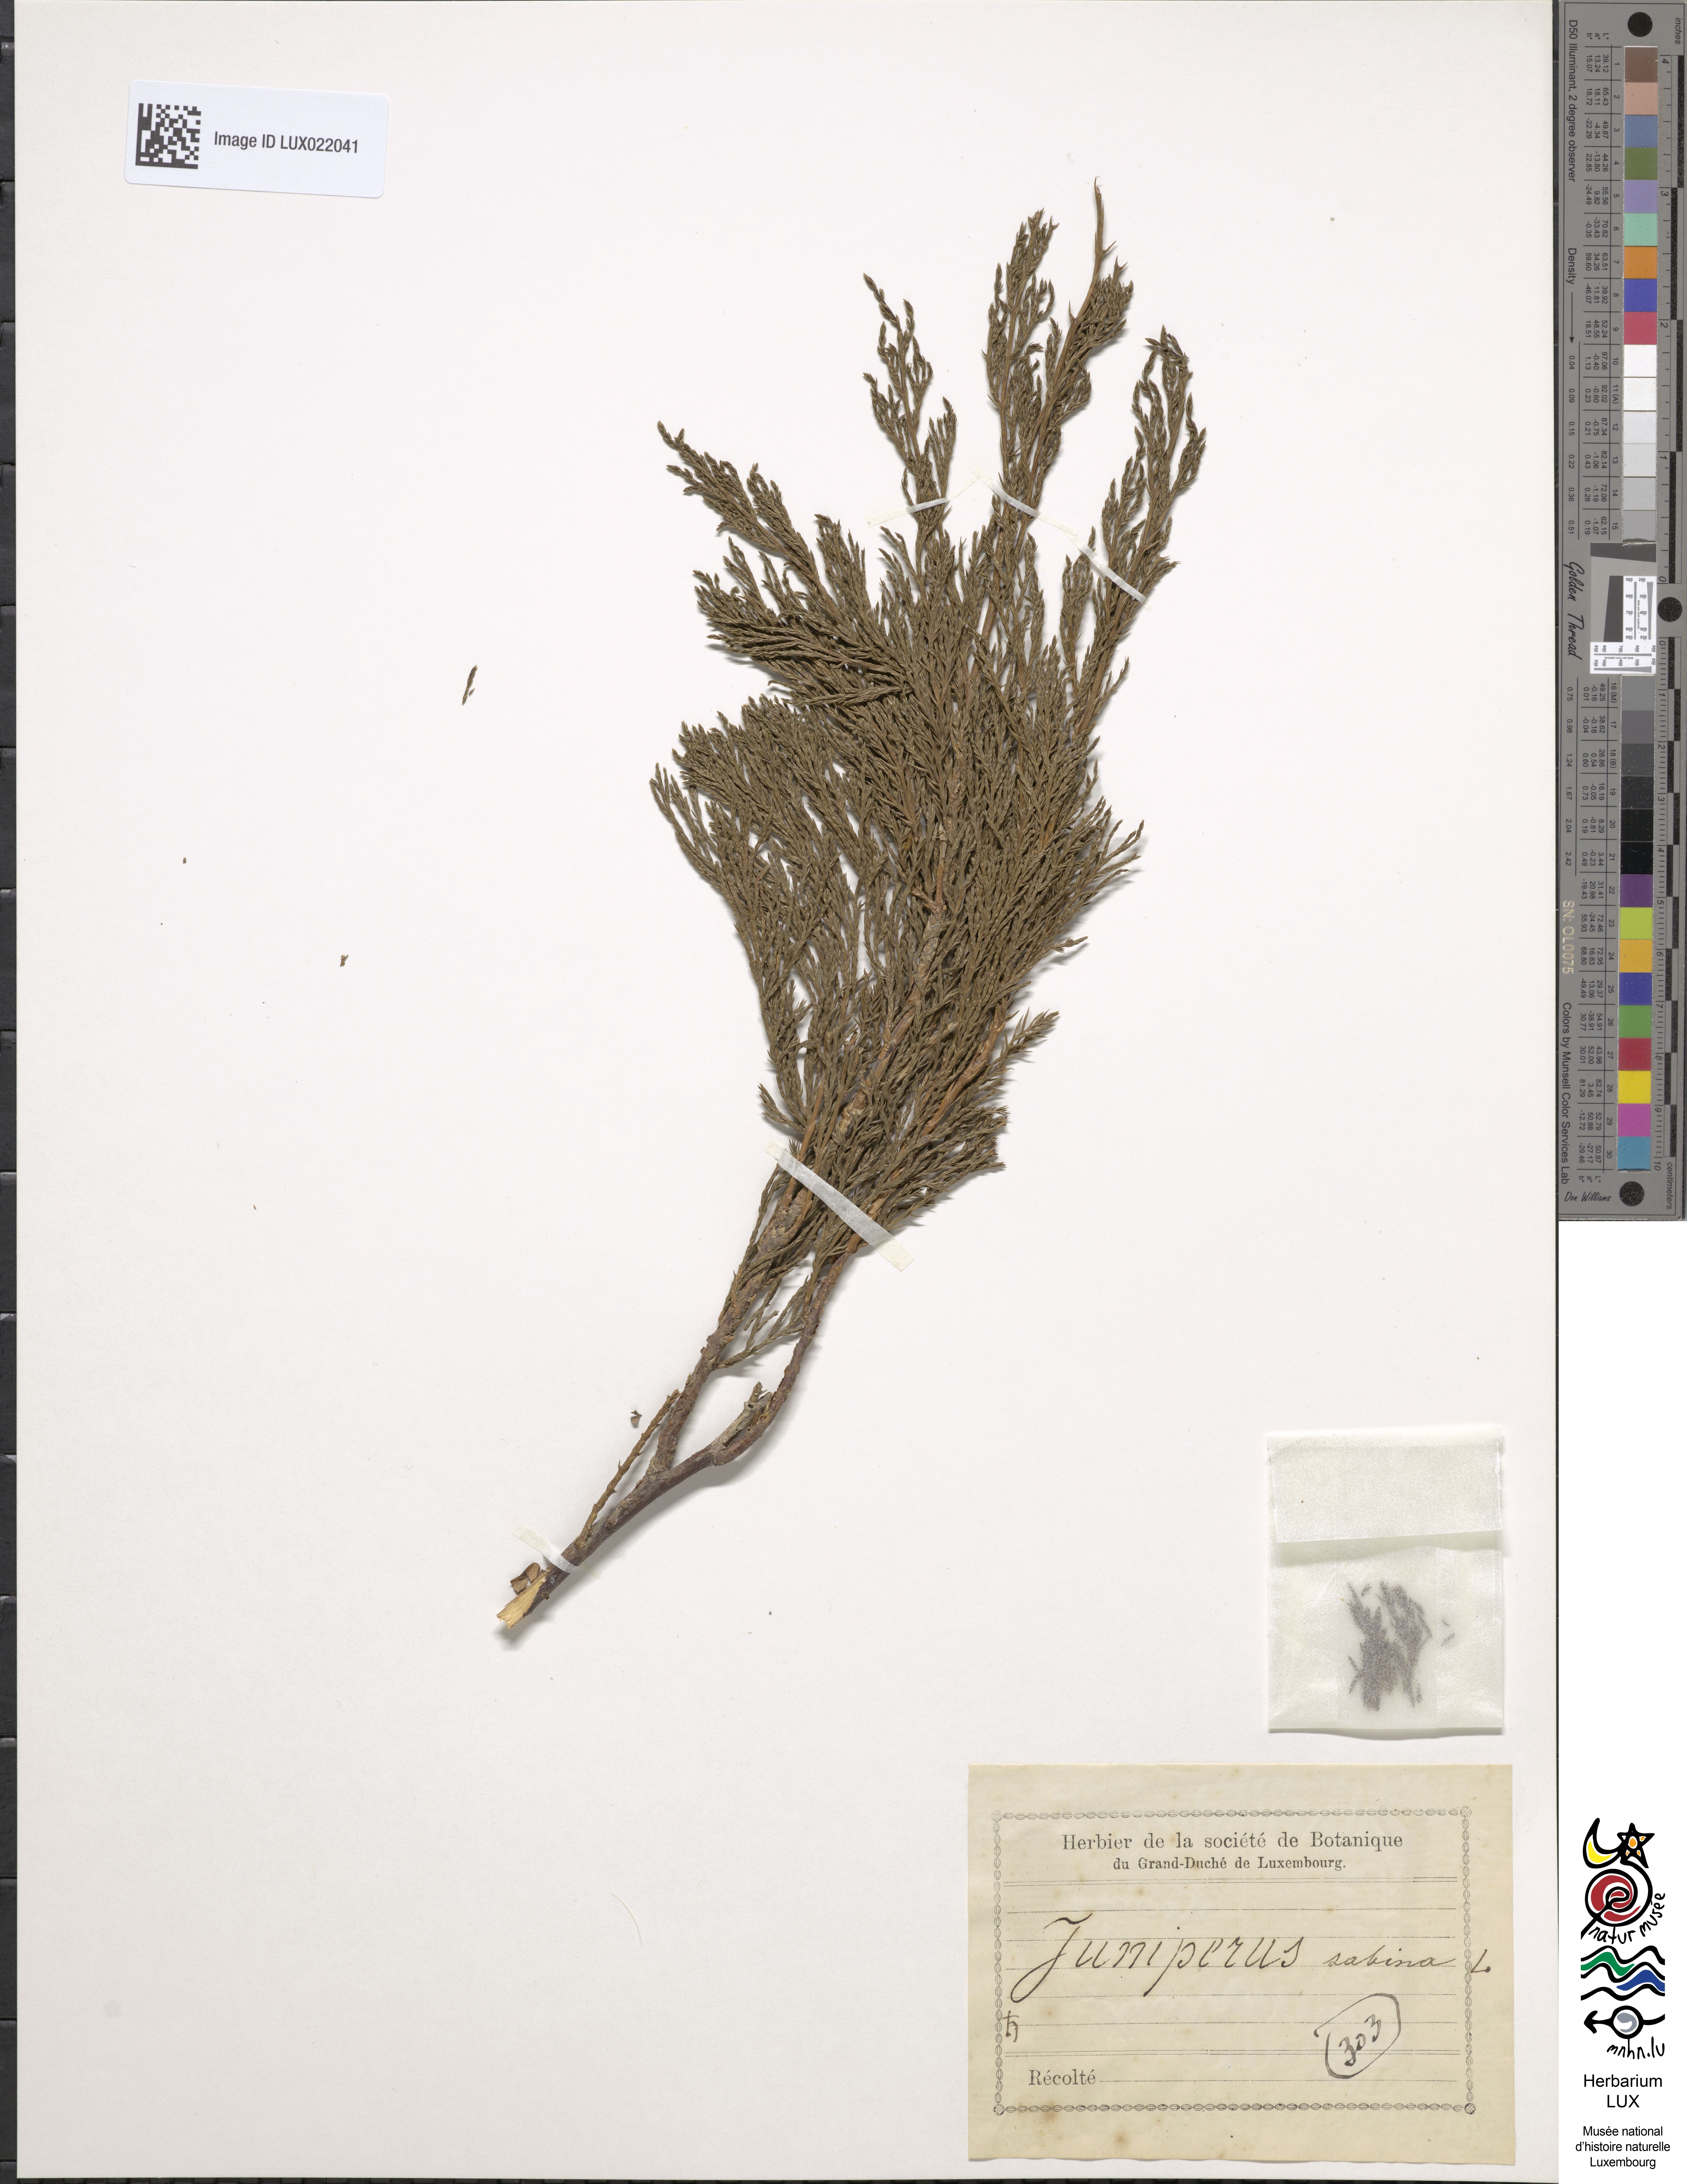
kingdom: Plantae
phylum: Tracheophyta
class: Pinopsida
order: Pinales
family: Cupressaceae
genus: Juniperus
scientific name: Juniperus sabina
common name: Savin
